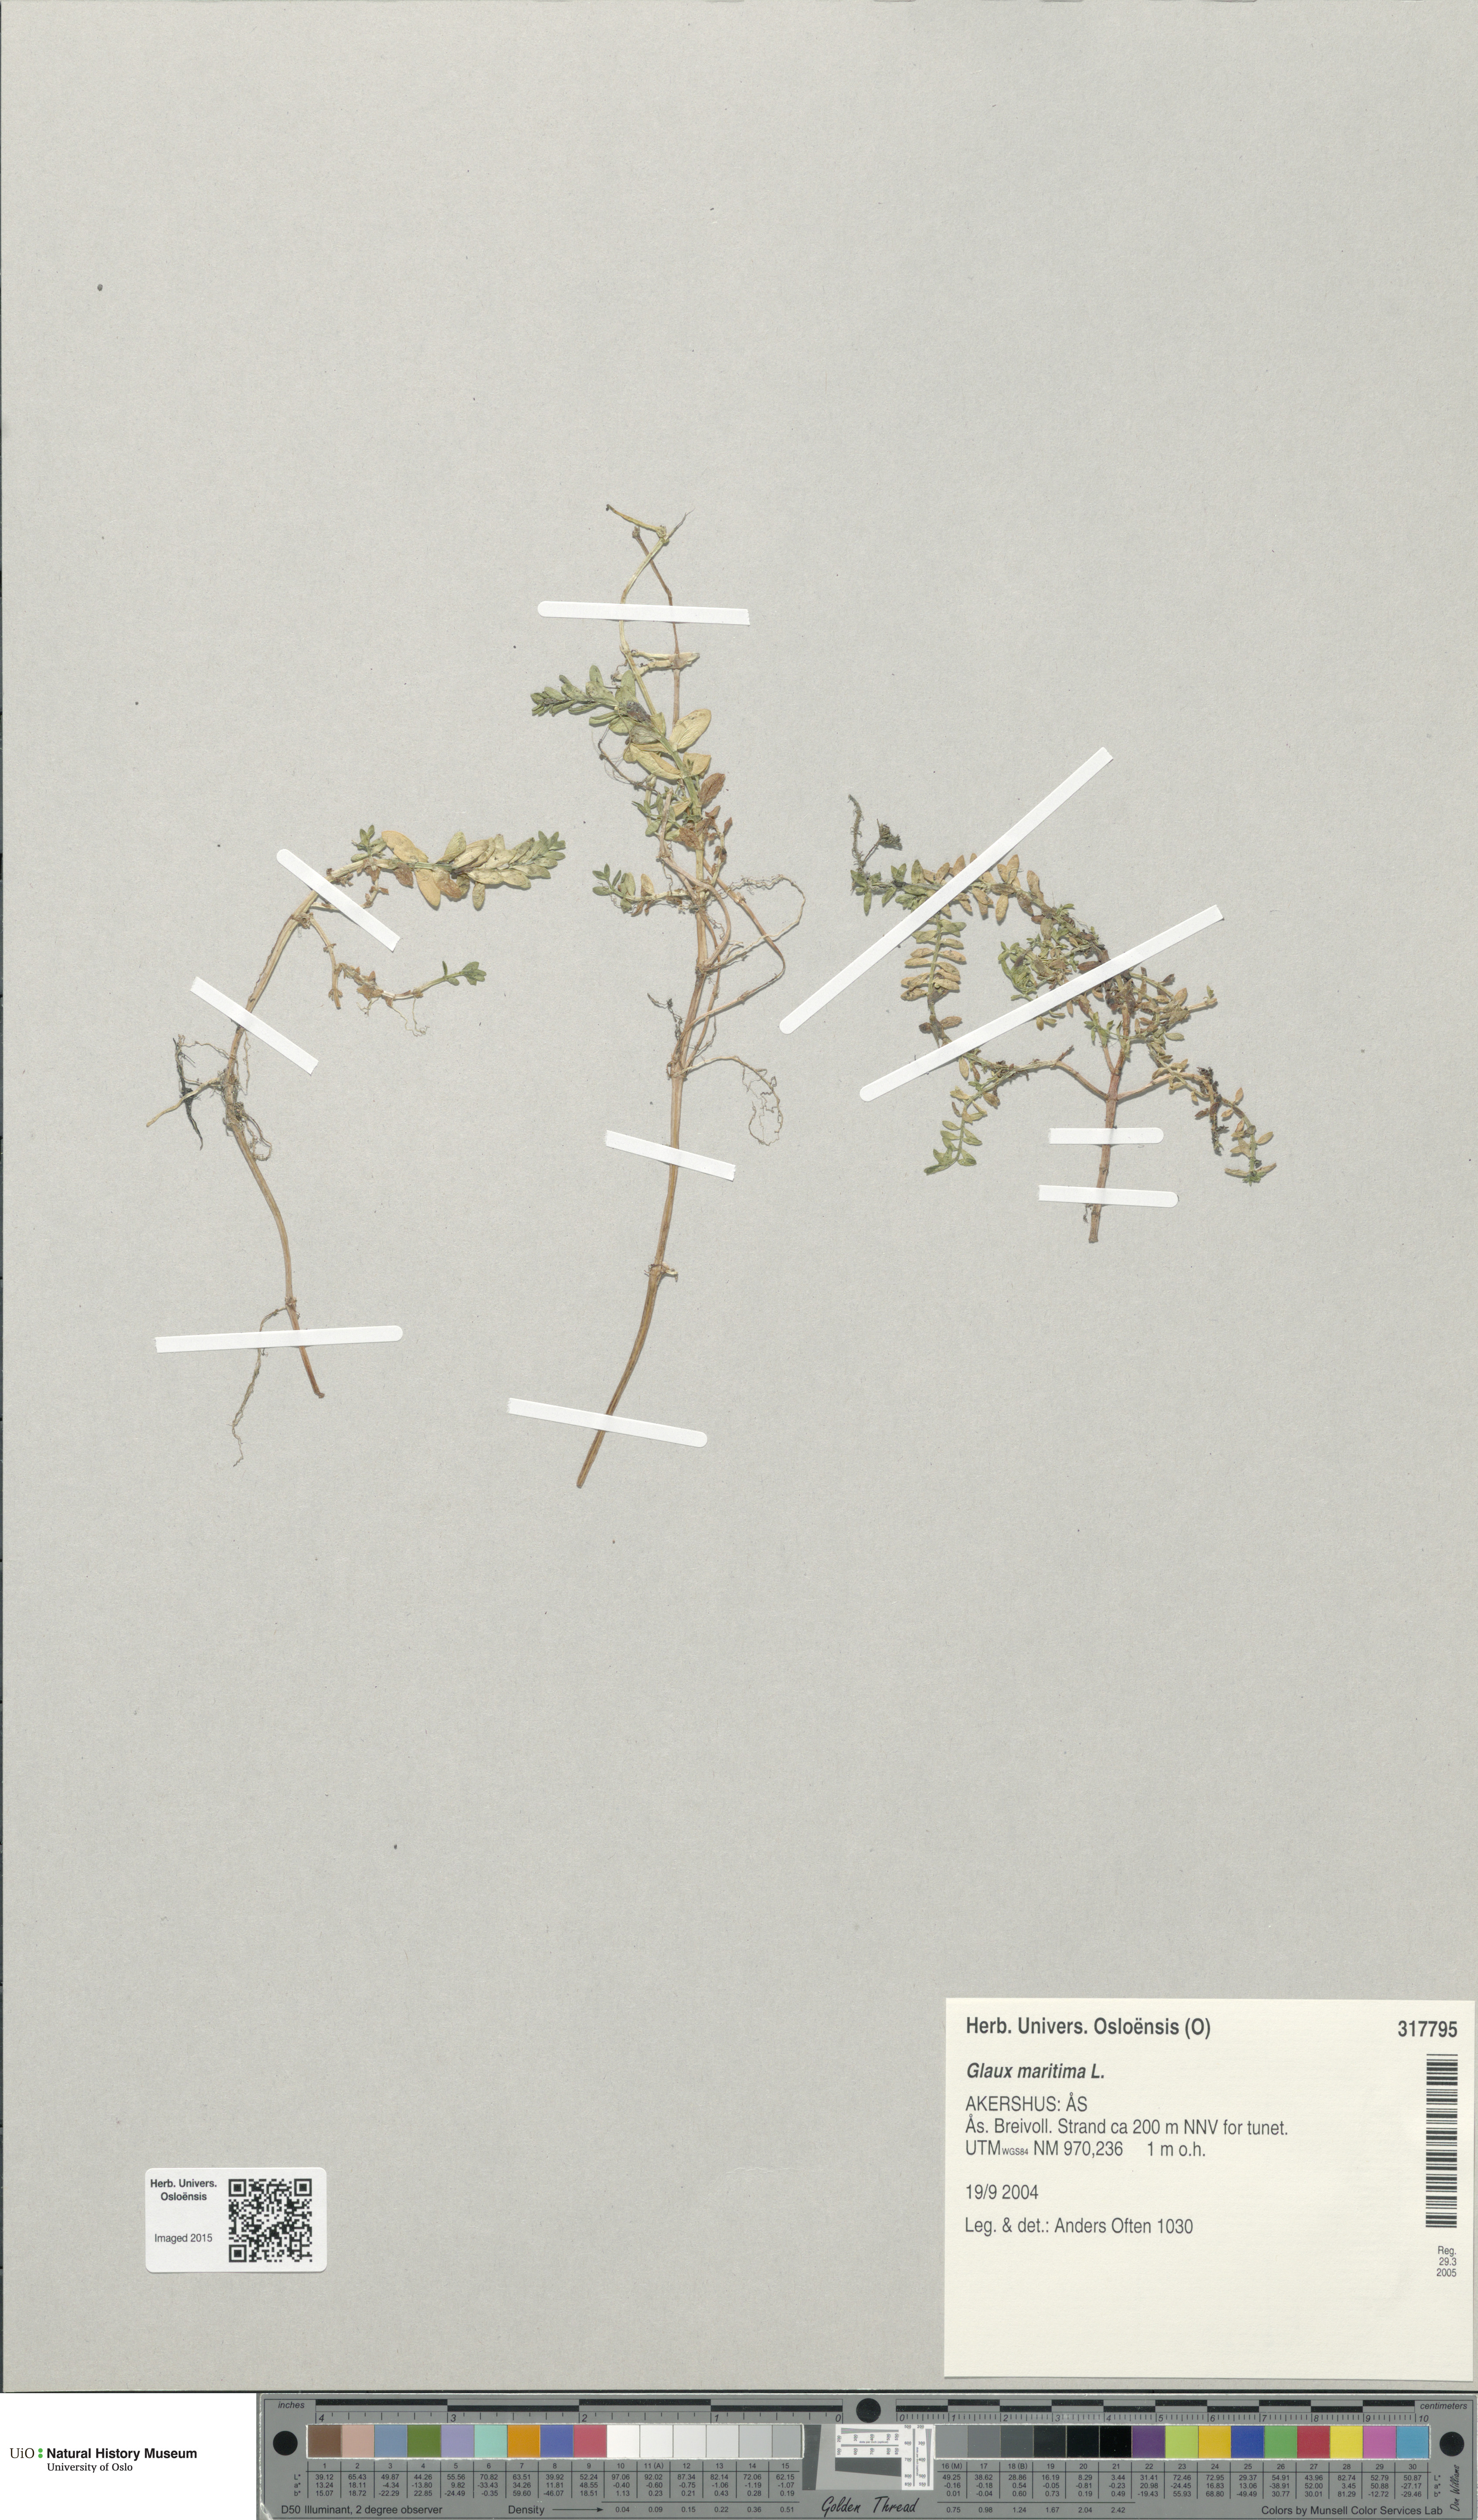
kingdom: Plantae
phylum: Tracheophyta
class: Magnoliopsida
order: Ericales
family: Primulaceae
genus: Lysimachia
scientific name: Lysimachia maritima
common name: Sea milkwort
